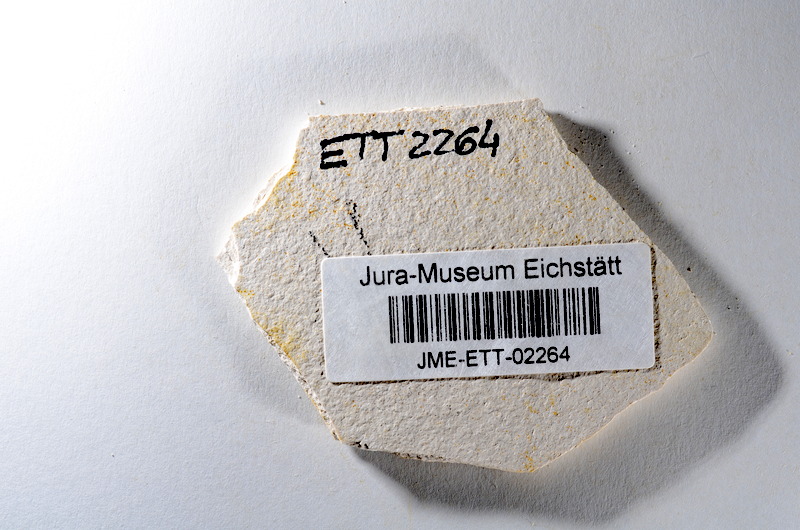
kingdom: Animalia
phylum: Chordata
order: Salmoniformes
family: Orthogonikleithridae
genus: Orthogonikleithrus
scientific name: Orthogonikleithrus hoelli
